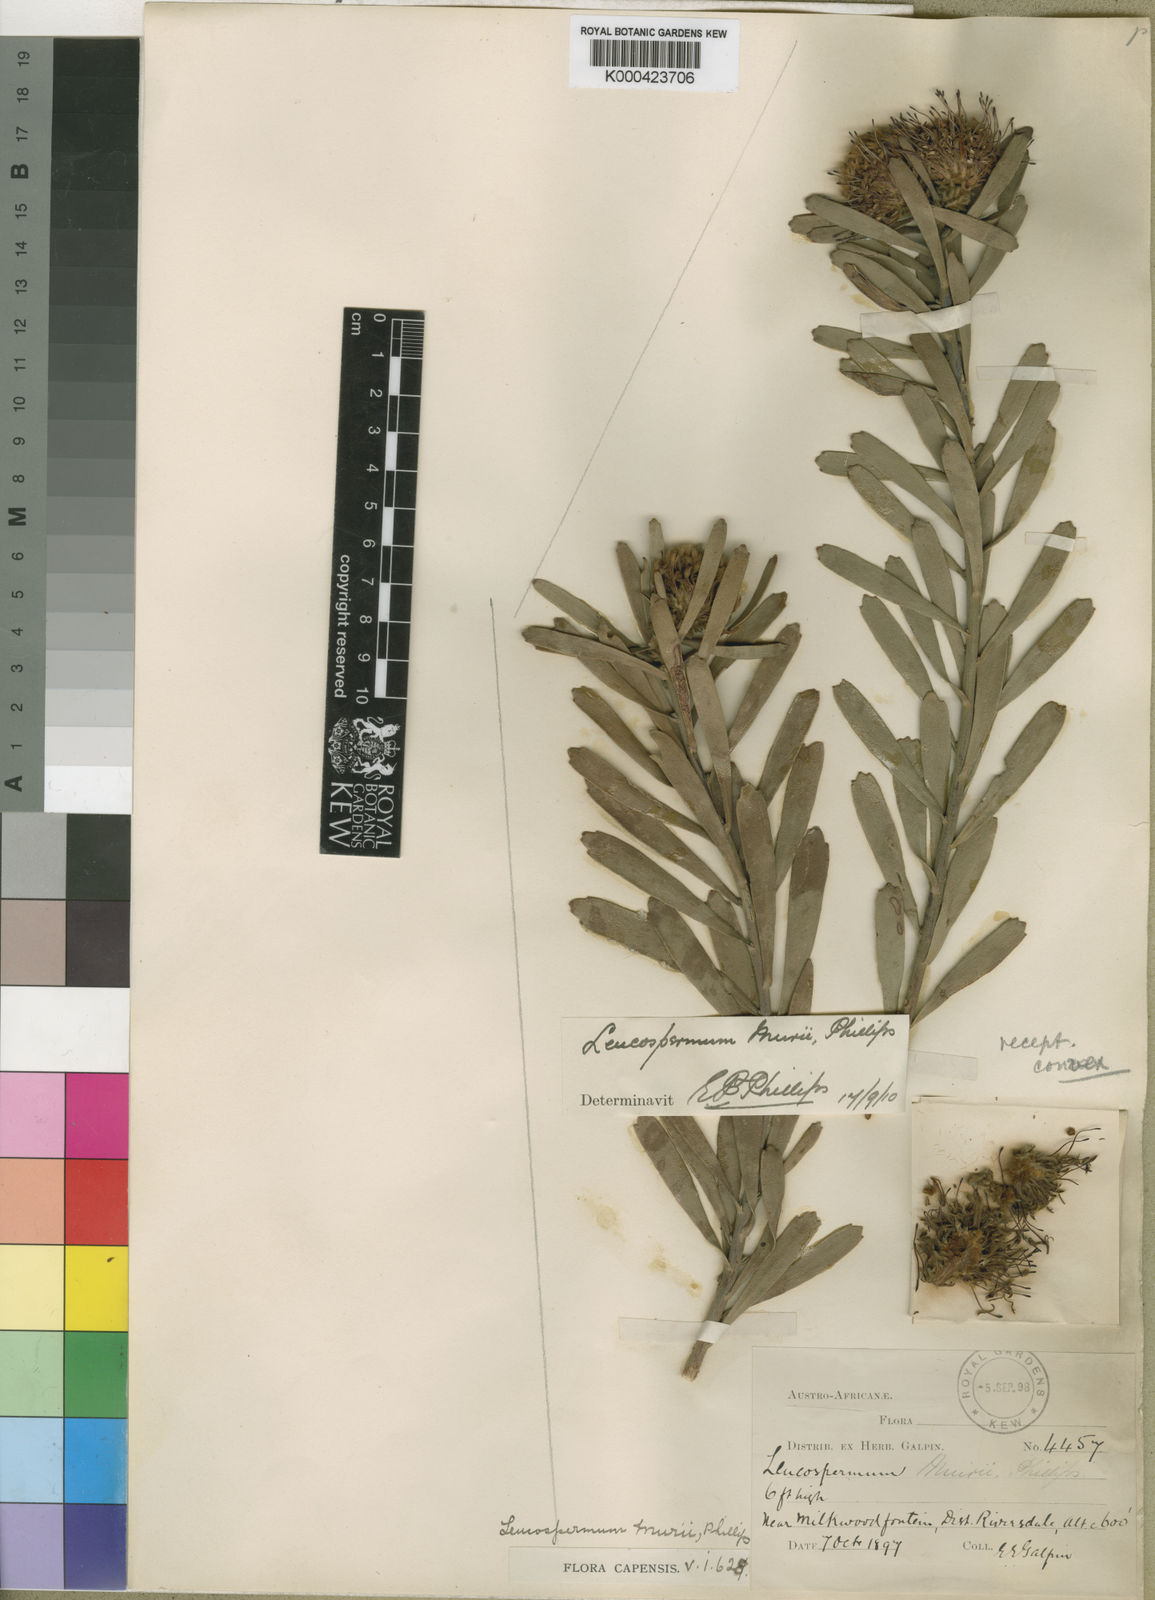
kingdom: Plantae
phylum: Tracheophyta
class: Magnoliopsida
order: Proteales
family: Proteaceae
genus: Leucospermum
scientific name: Leucospermum muirii
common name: Albertinia pincushion
